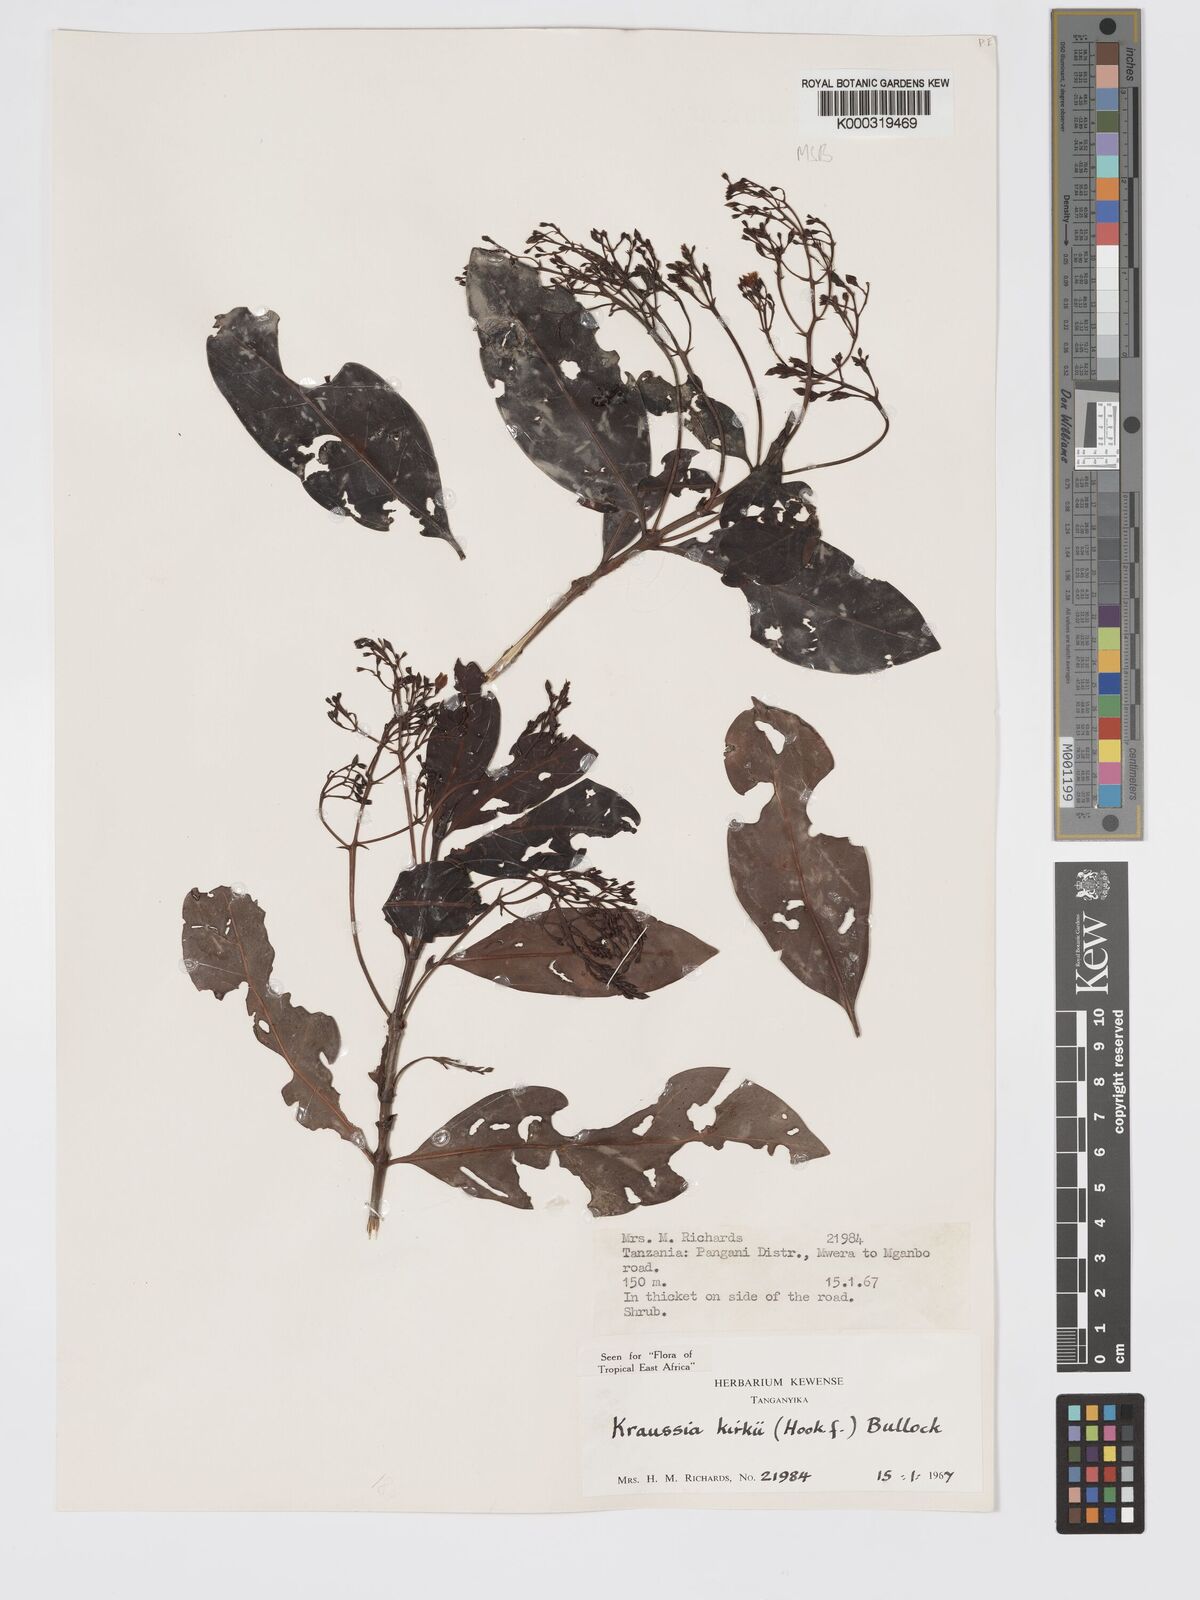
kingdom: Plantae
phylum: Tracheophyta
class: Magnoliopsida
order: Gentianales
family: Rubiaceae
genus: Kraussia
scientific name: Kraussia kirkii
